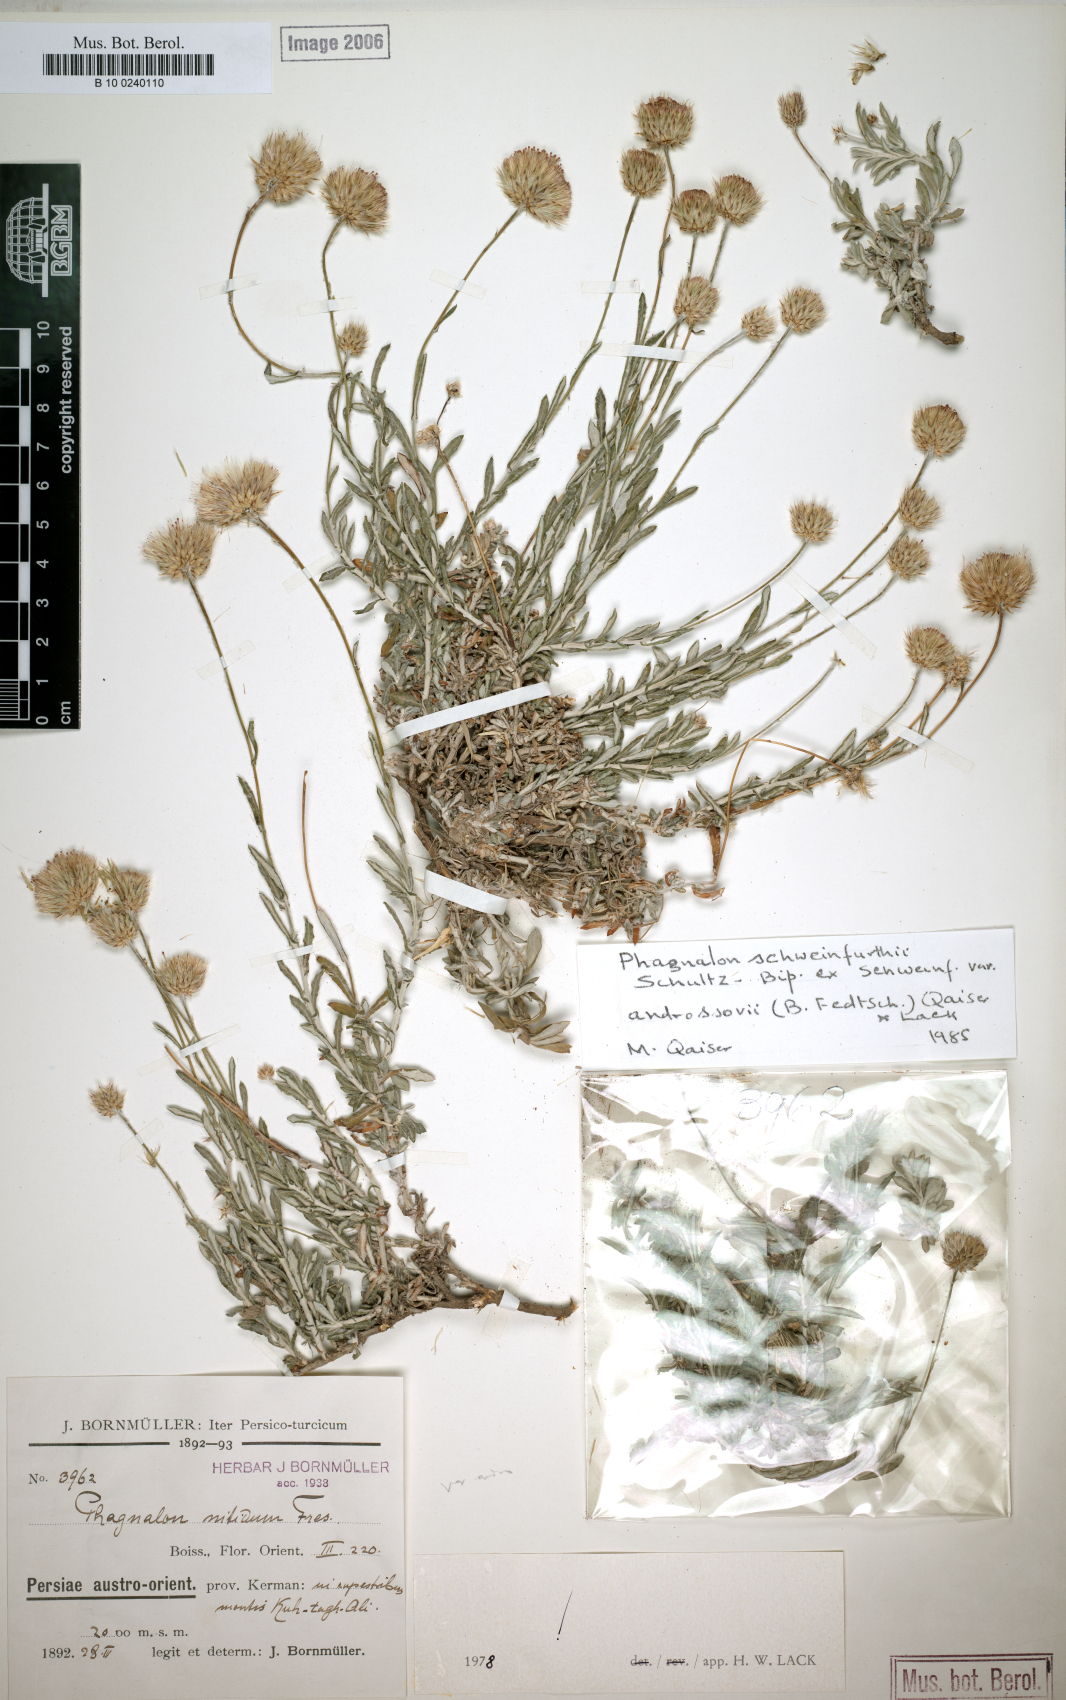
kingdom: Plantae
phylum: Tracheophyta
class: Magnoliopsida
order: Asterales
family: Asteraceae
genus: Phagnalon
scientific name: Phagnalon schweinfurthii
